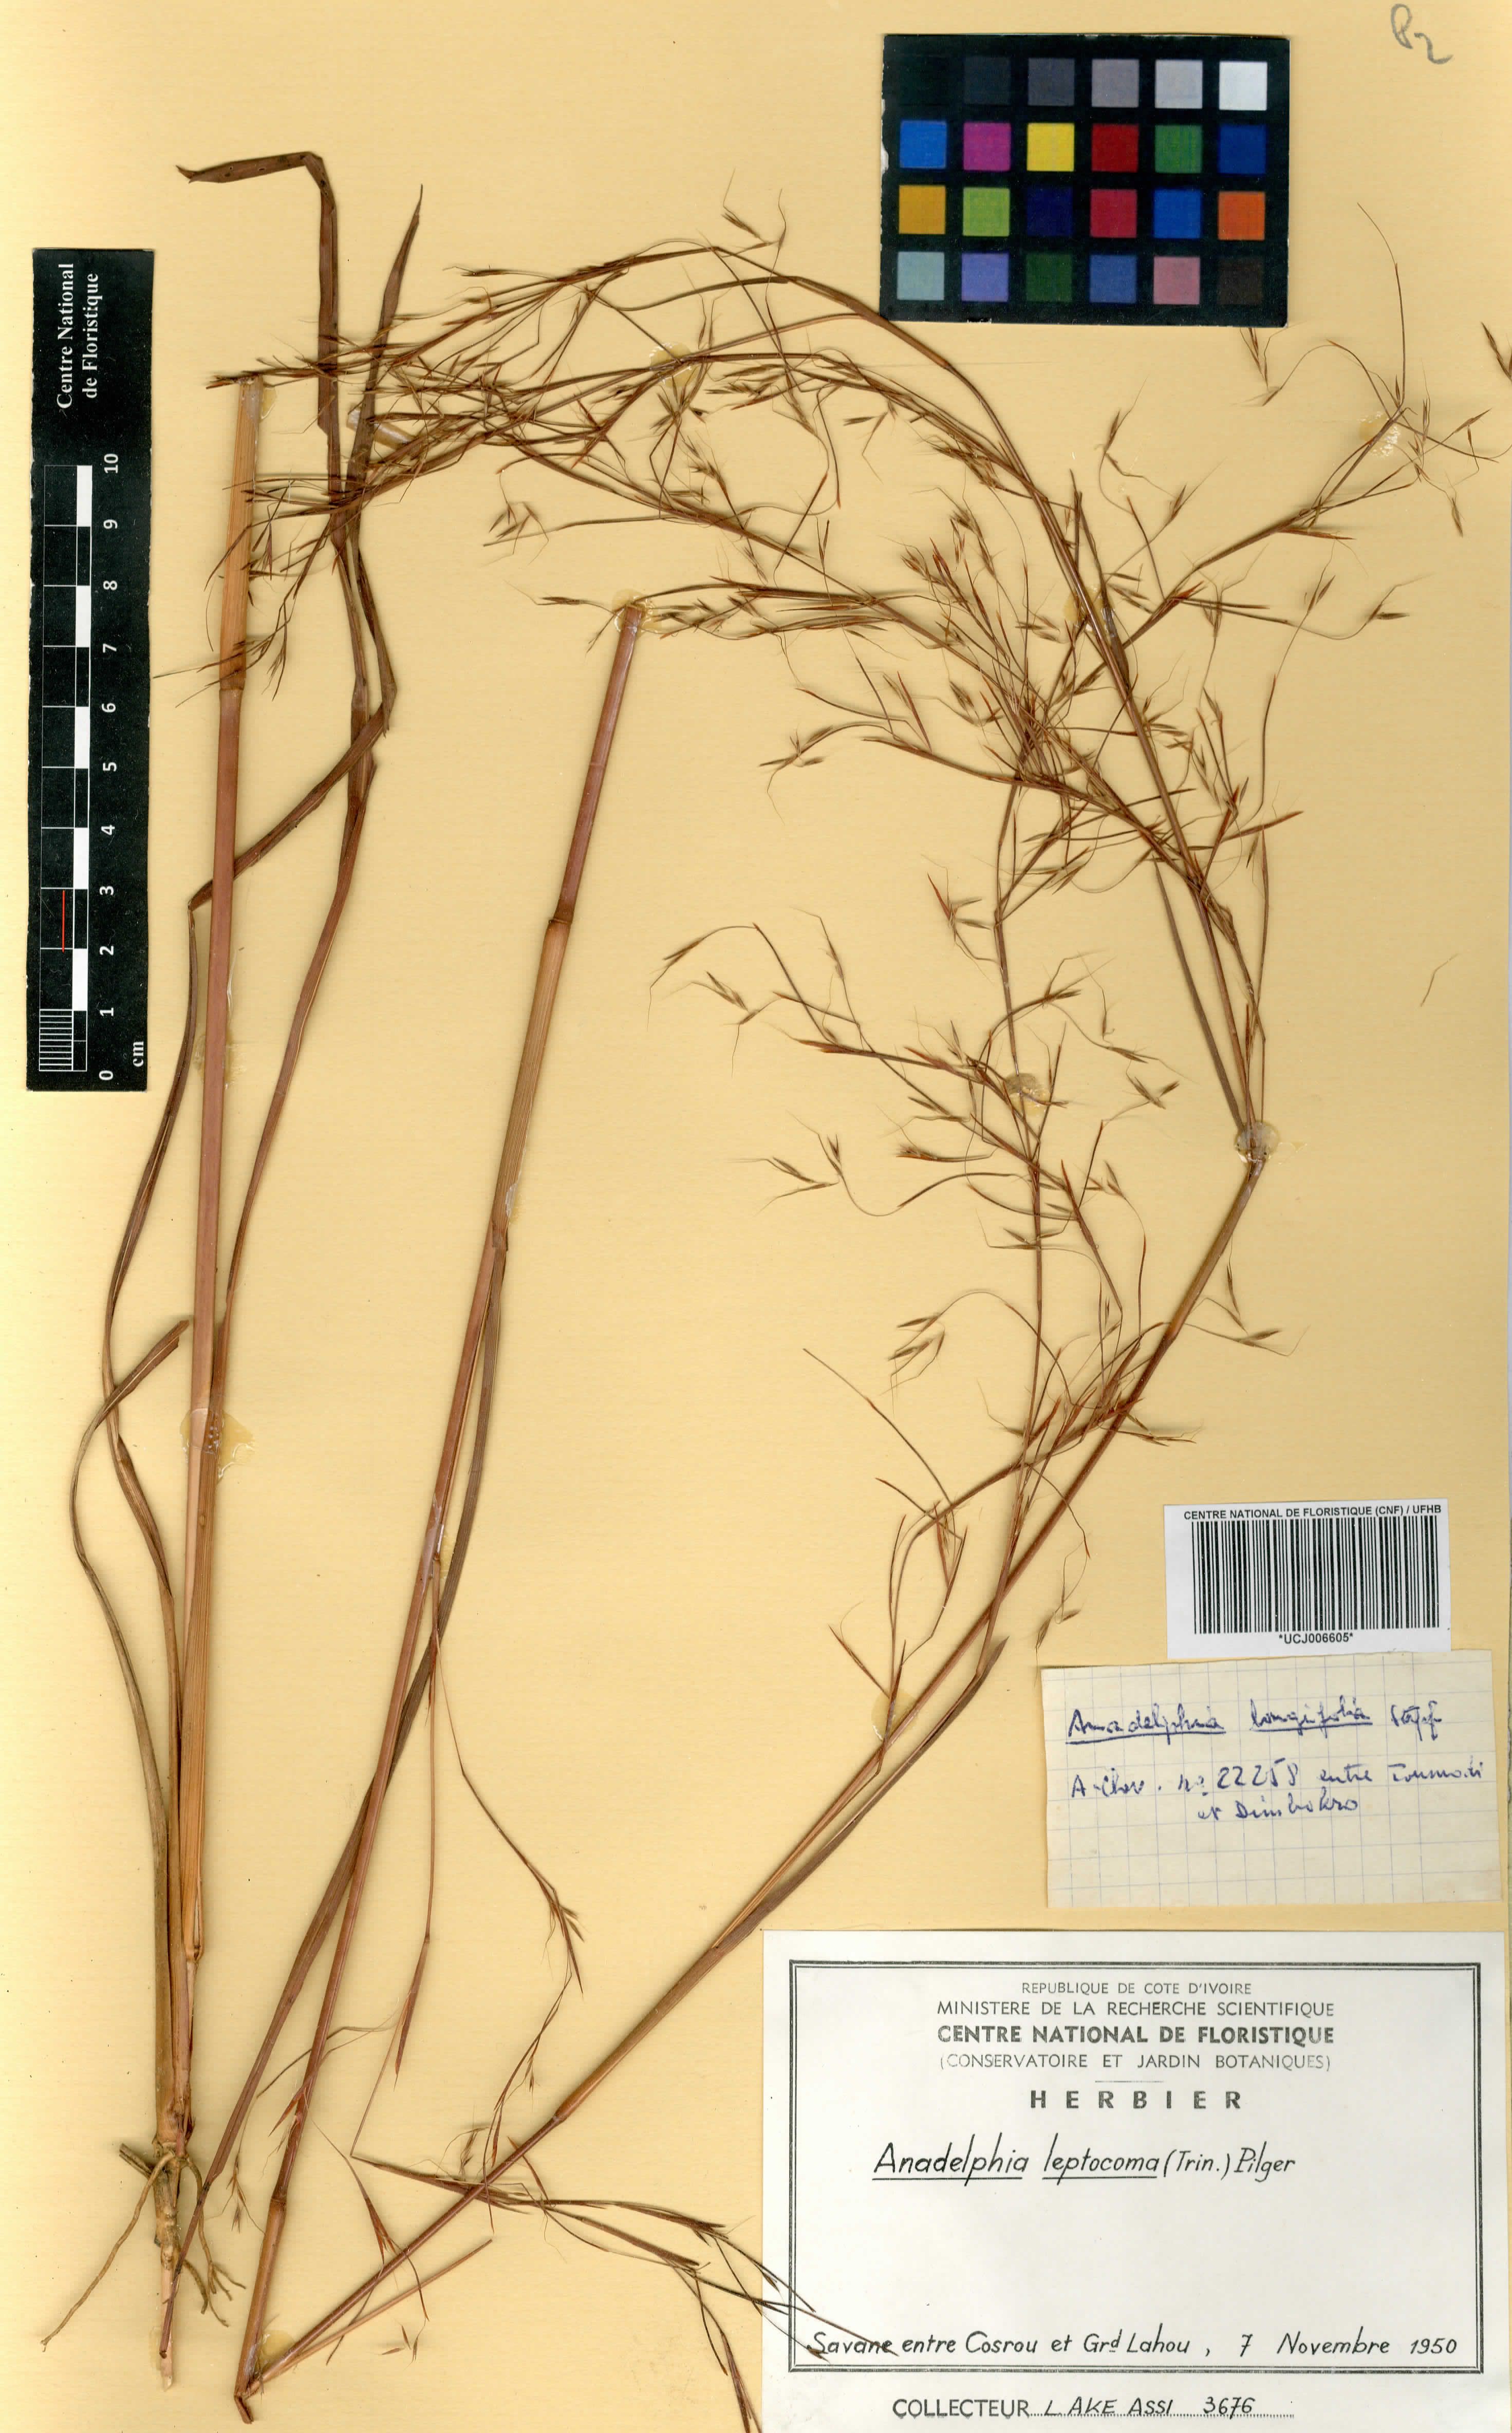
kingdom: Plantae
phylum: Tracheophyta
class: Liliopsida
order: Poales
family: Poaceae
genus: Anadelphia
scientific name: Anadelphia leptocoma
